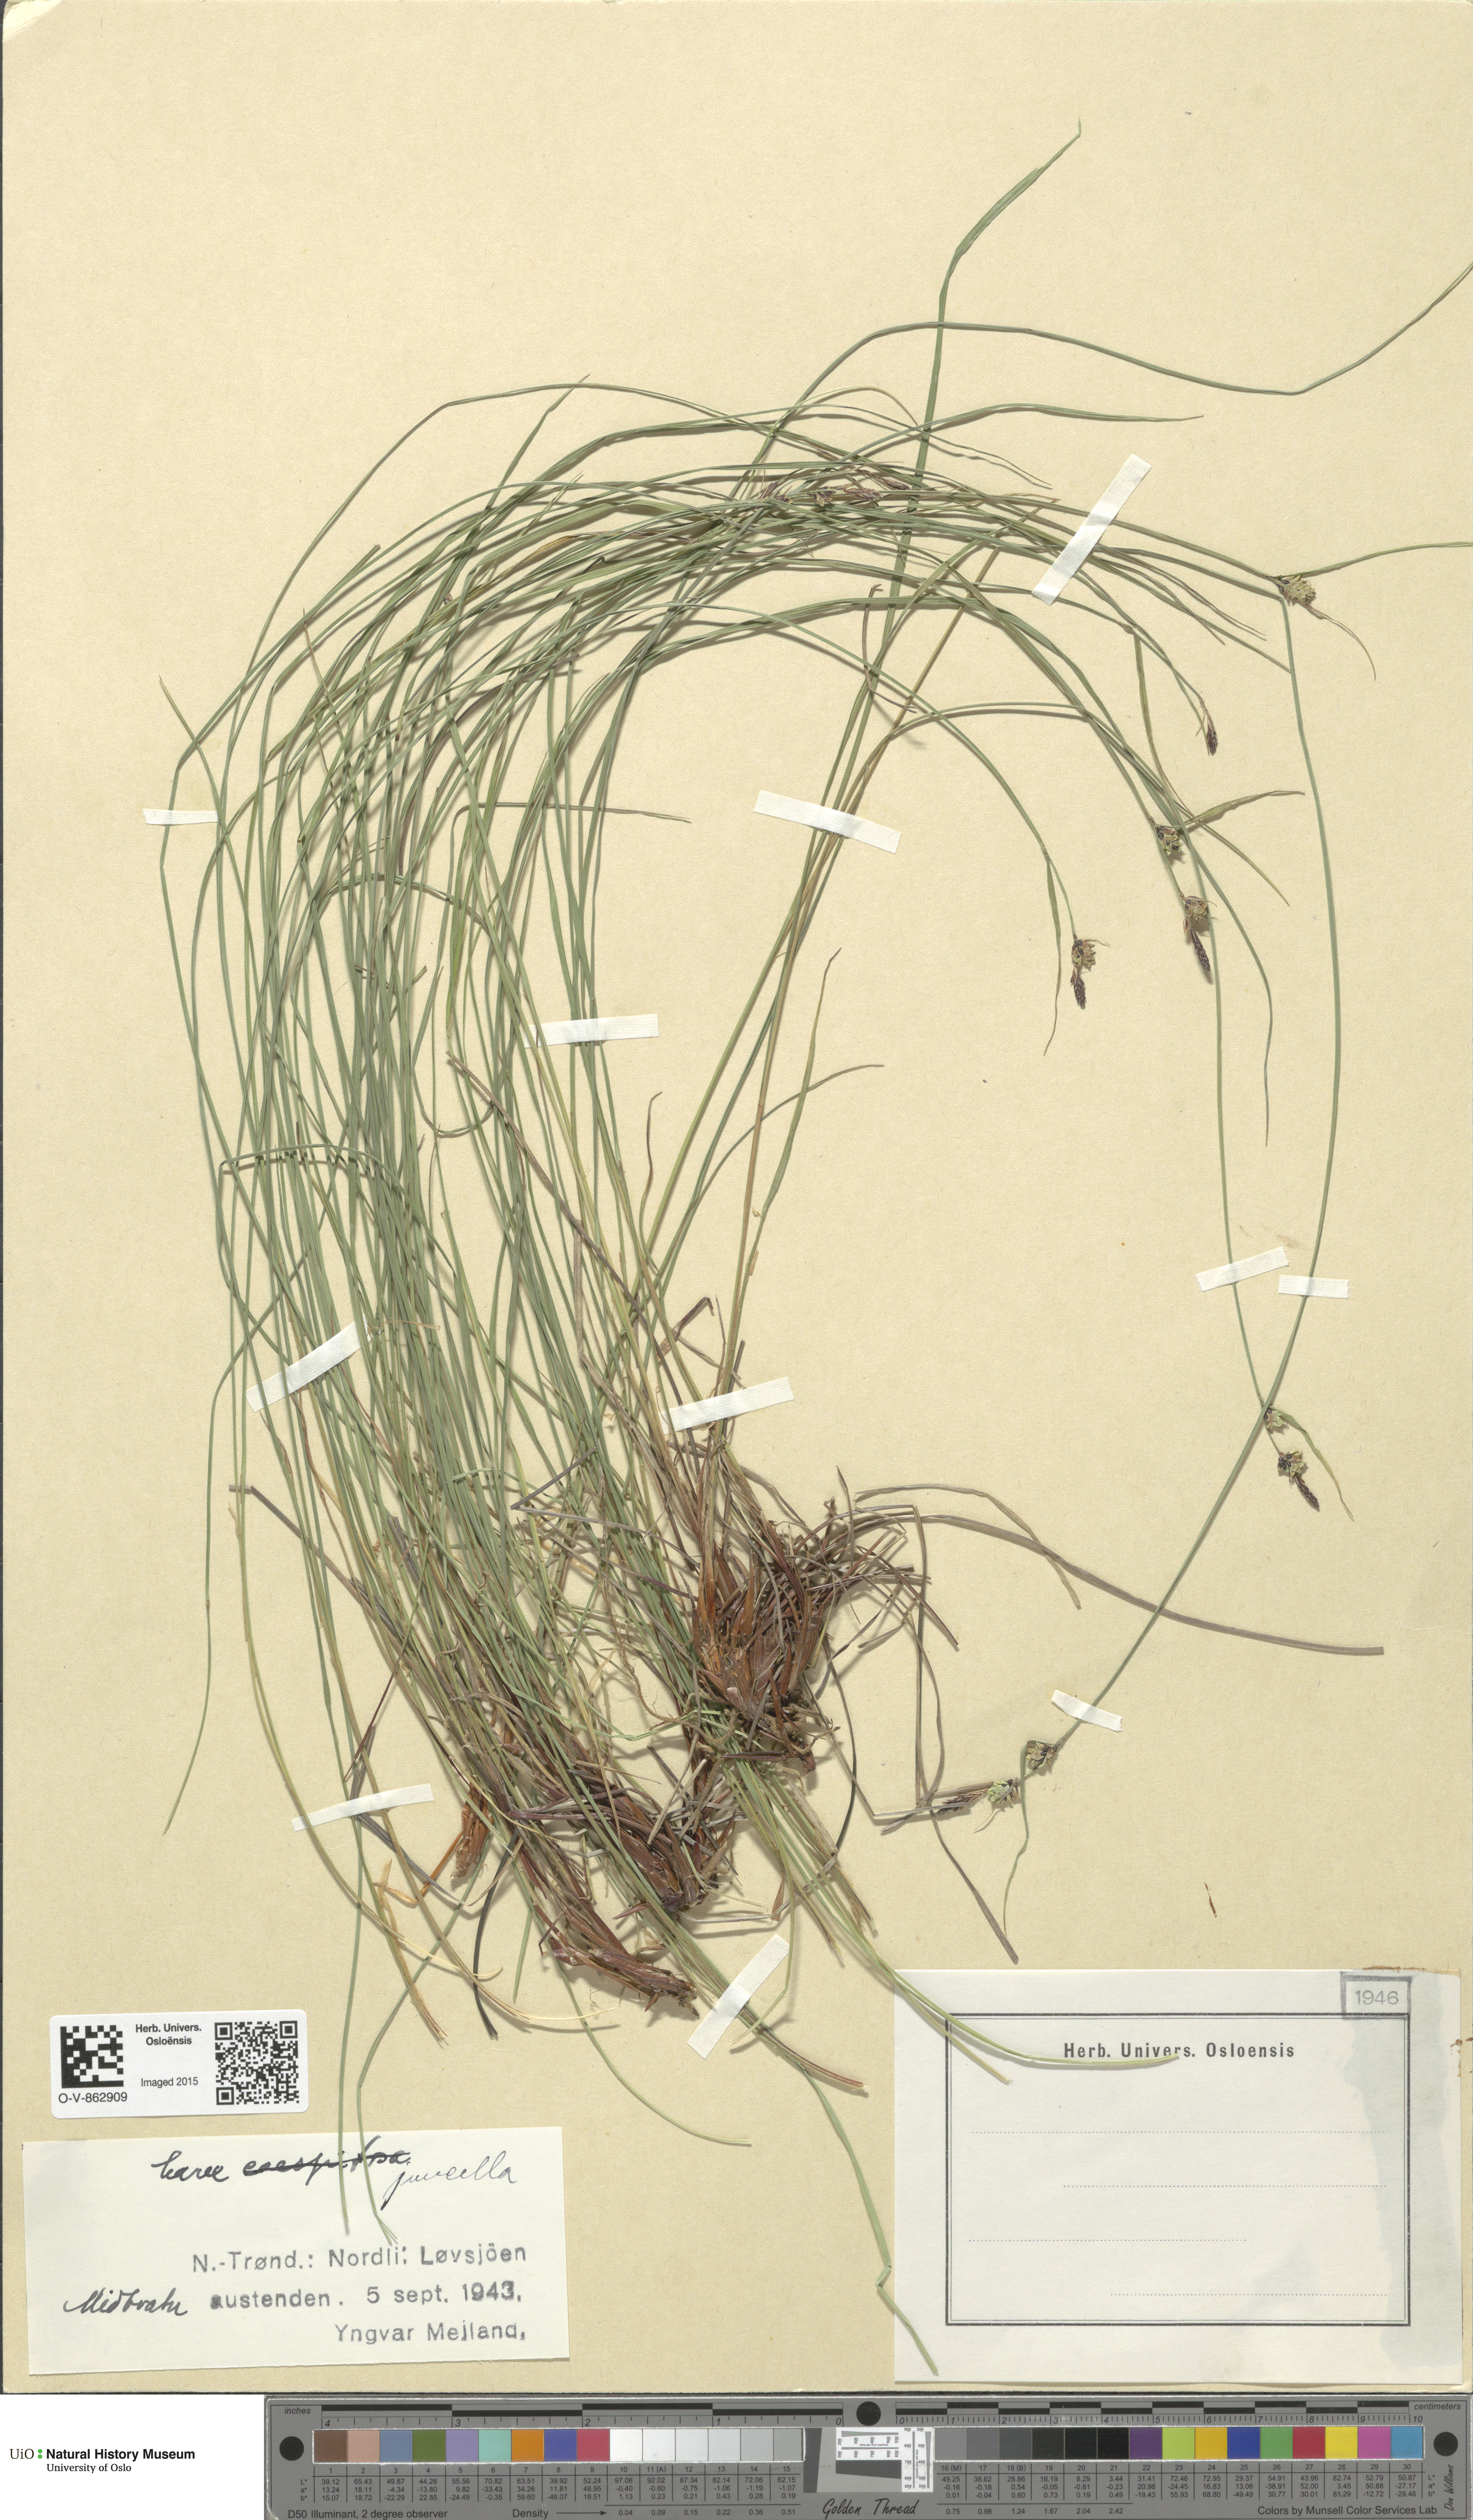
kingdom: Plantae
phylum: Tracheophyta
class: Liliopsida
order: Poales
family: Cyperaceae
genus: Carex
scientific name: Carex nigra
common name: Common sedge
